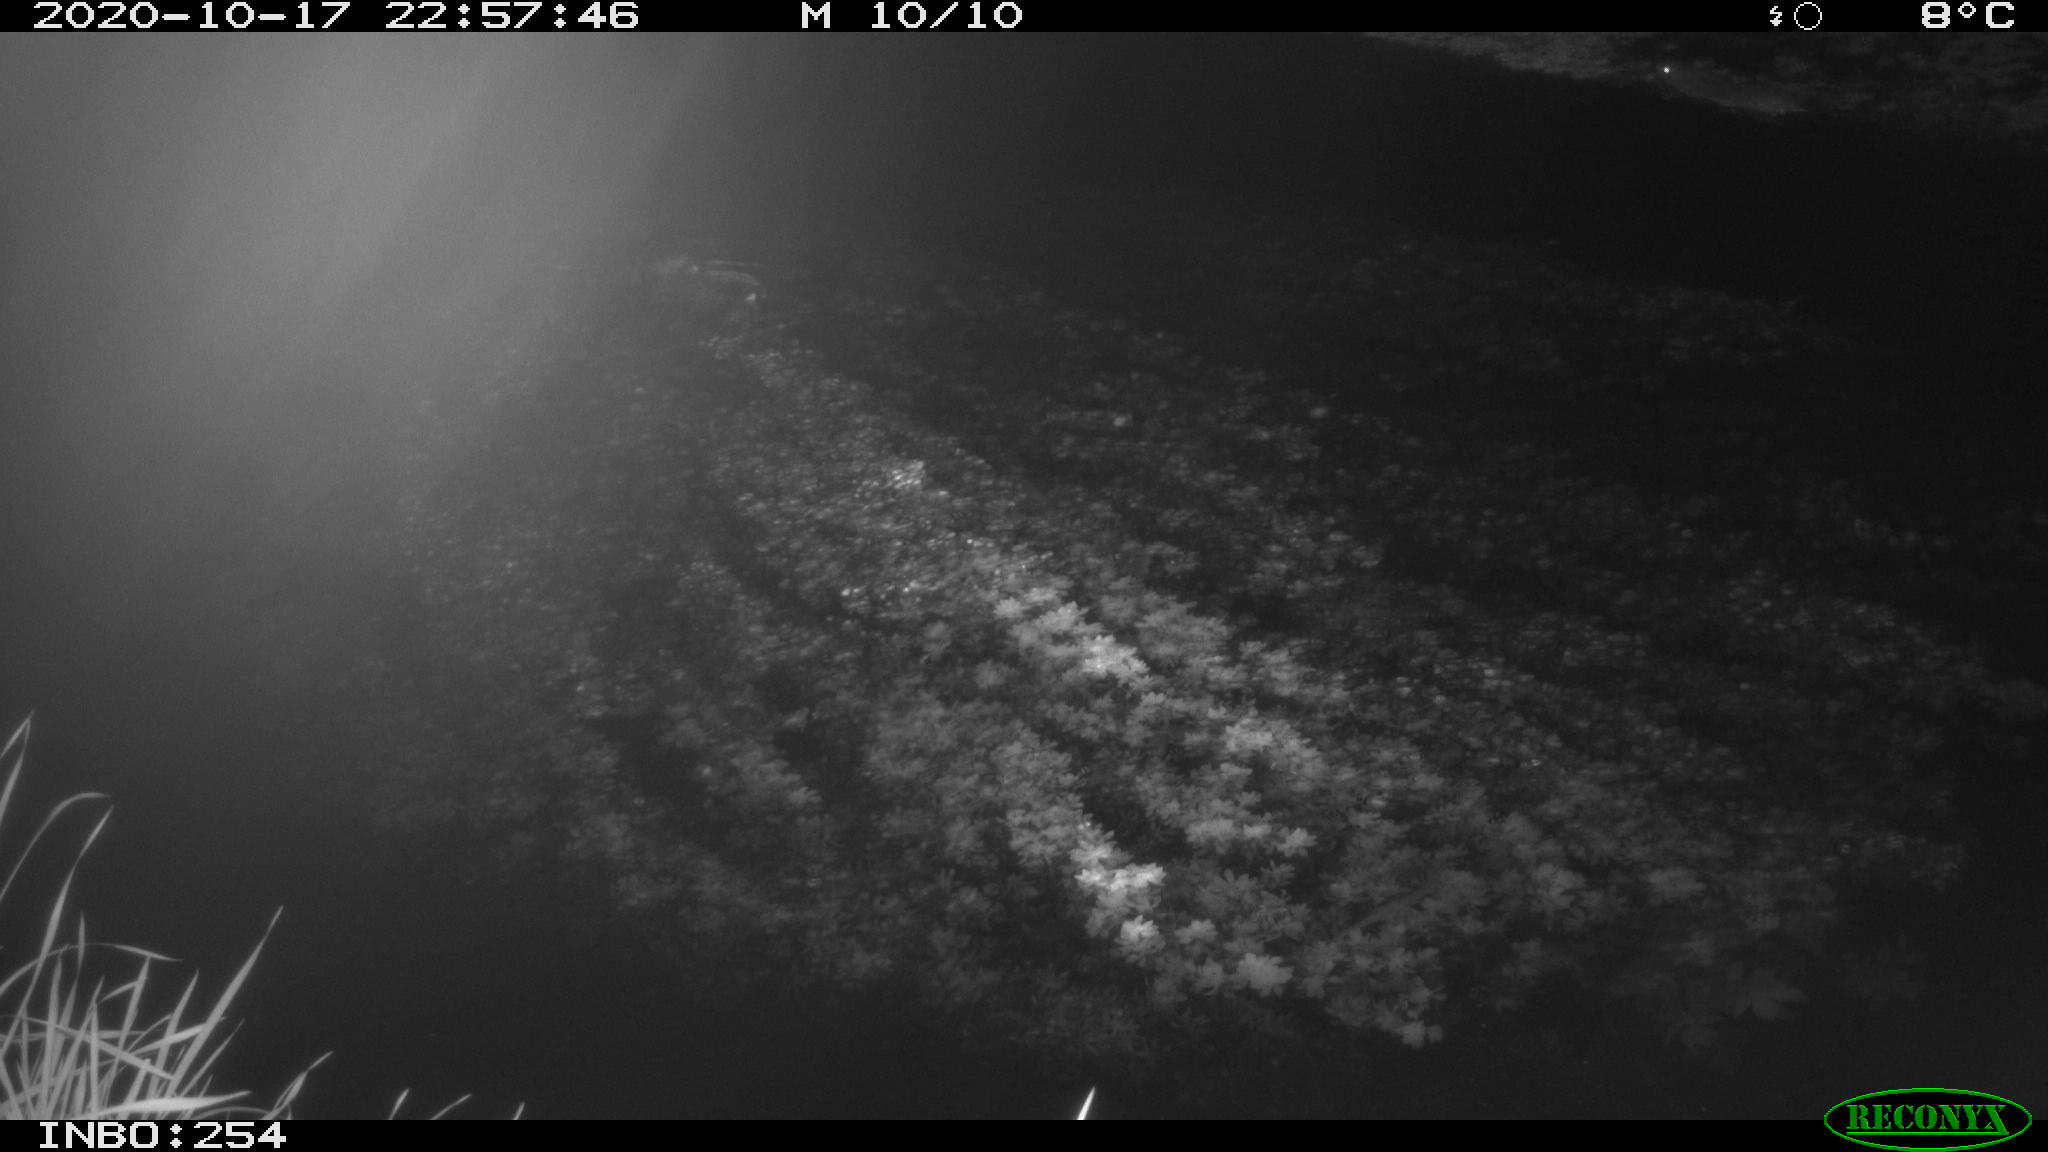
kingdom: Animalia
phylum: Chordata
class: Mammalia
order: Rodentia
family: Muridae
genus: Rattus
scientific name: Rattus norvegicus
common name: Brown rat
